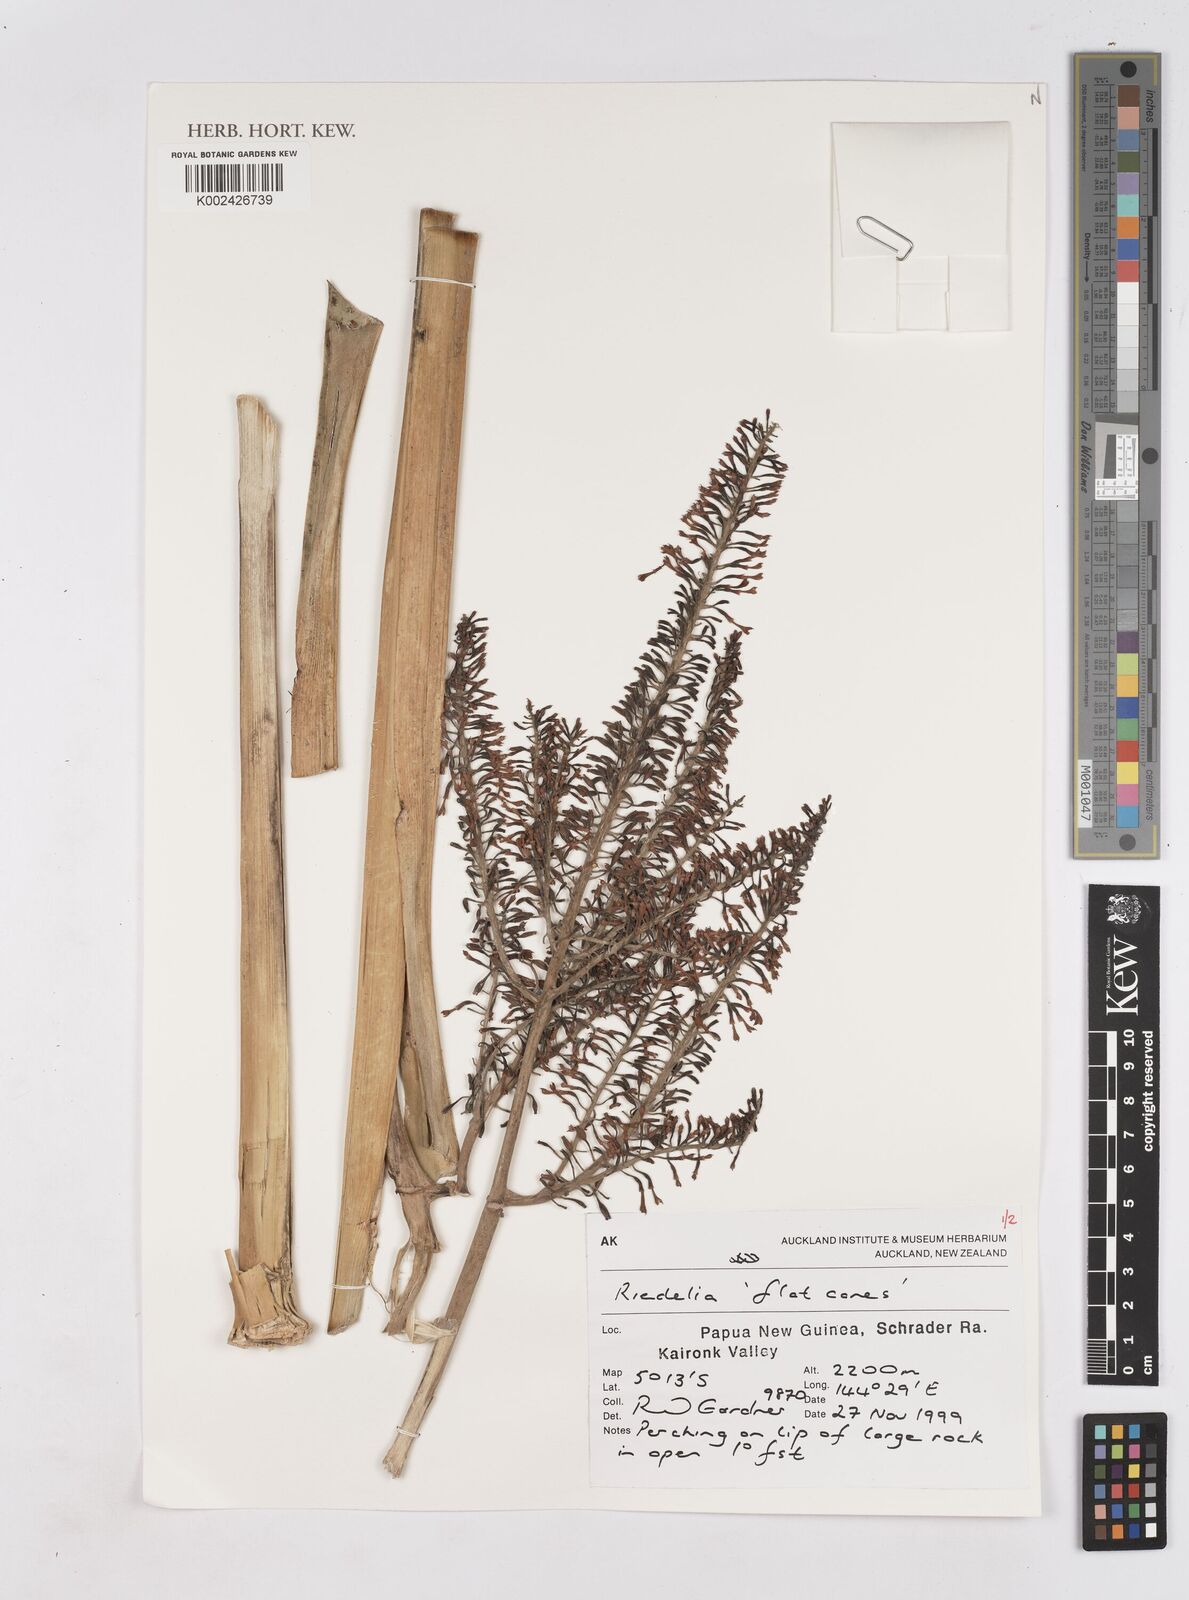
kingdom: Plantae
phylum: Tracheophyta
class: Liliopsida
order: Zingiberales
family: Zingiberaceae
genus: Riedelia
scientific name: Riedelia
